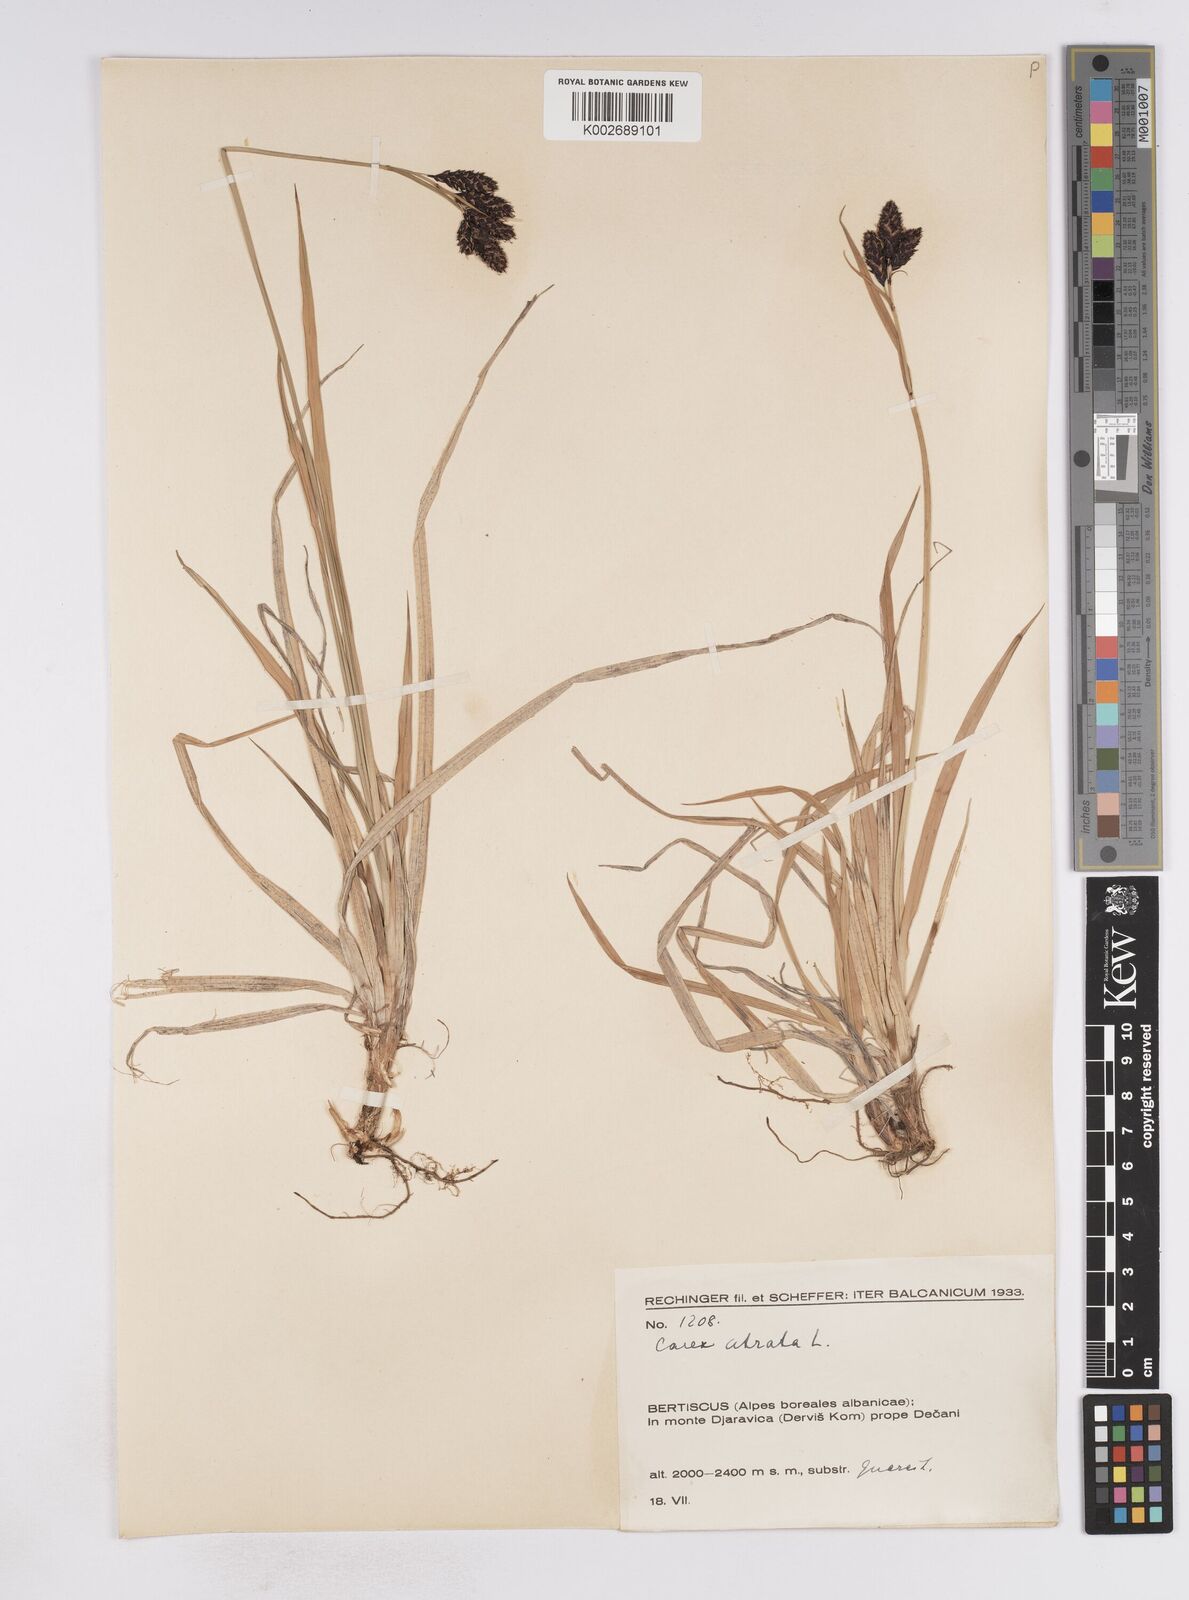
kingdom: Plantae
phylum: Tracheophyta
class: Liliopsida
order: Poales
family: Cyperaceae
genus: Carex
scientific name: Carex atrata
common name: Black alpine sedge
